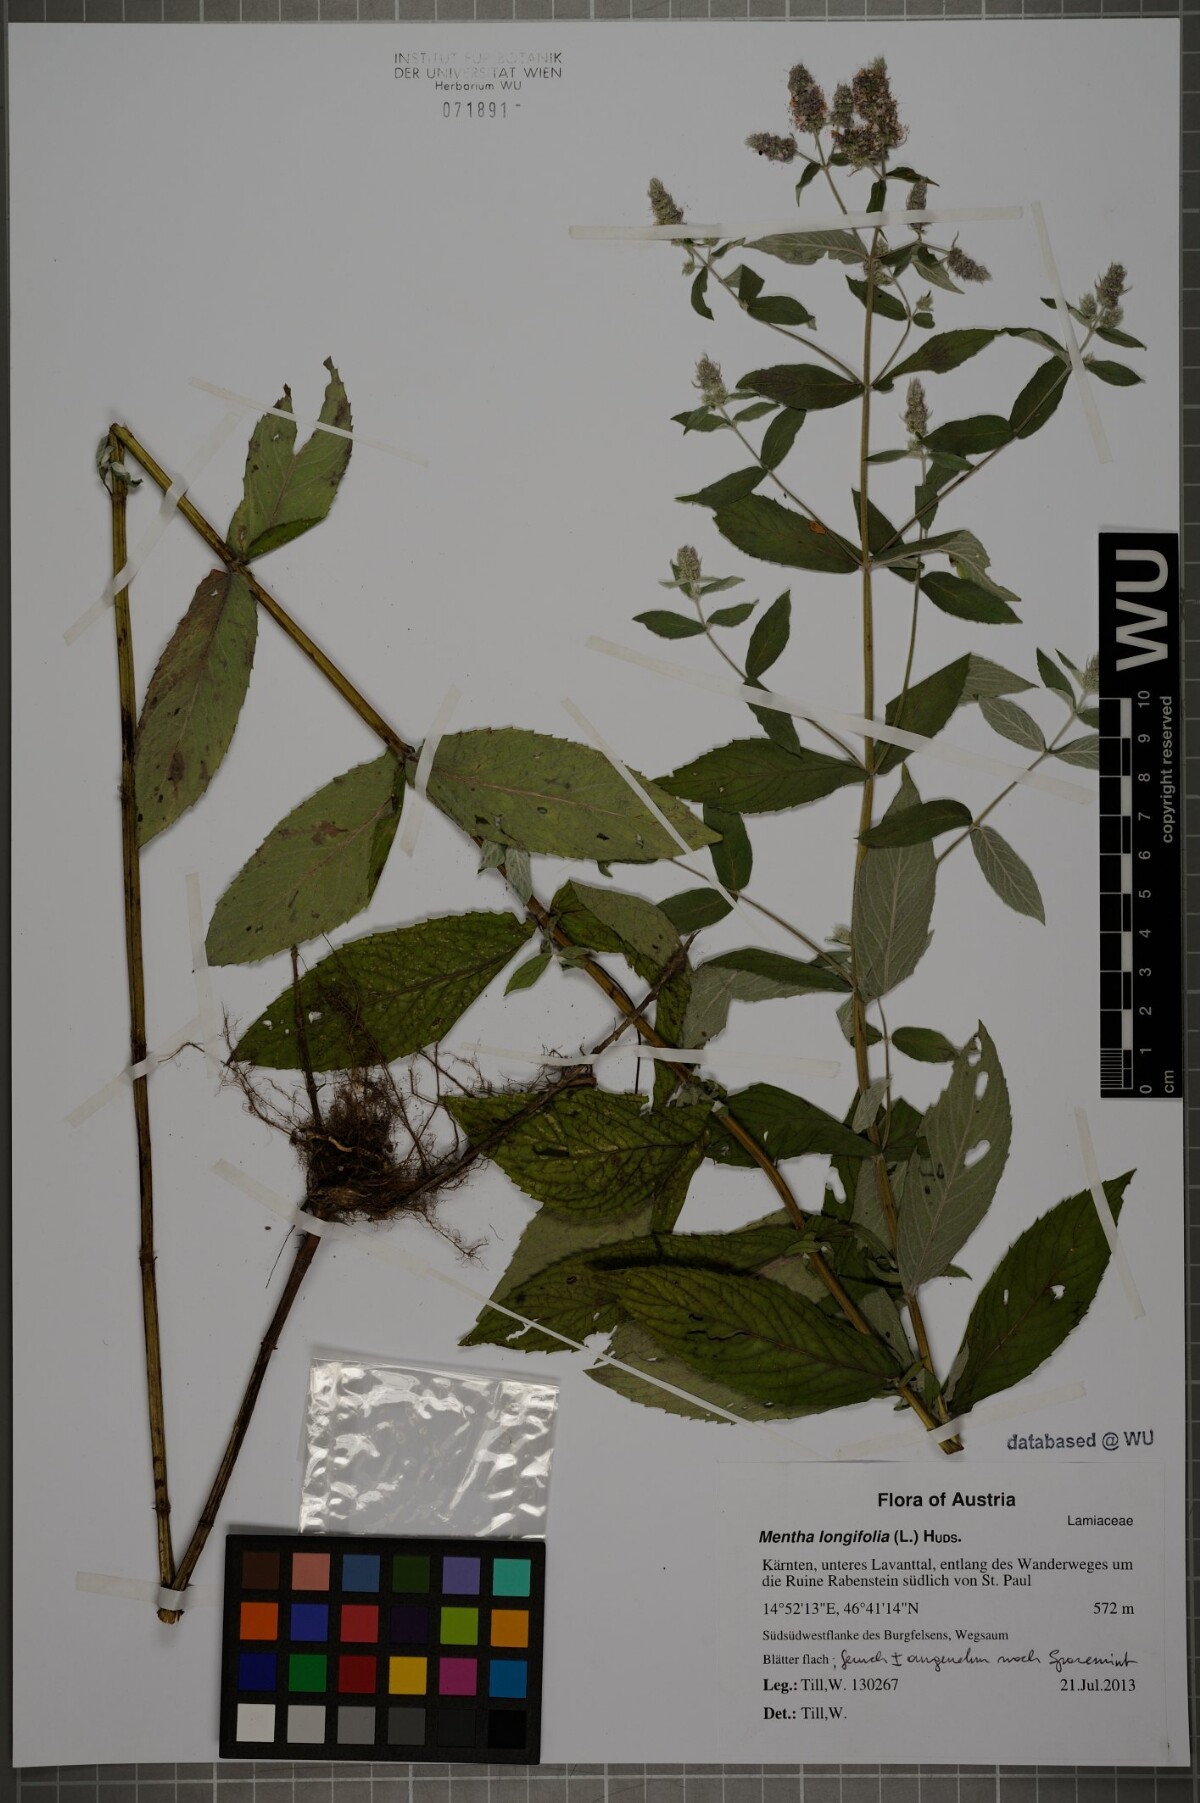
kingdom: Plantae
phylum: Tracheophyta
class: Magnoliopsida
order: Lamiales
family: Lamiaceae
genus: Mentha
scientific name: Mentha longifolia
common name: Horse mint
